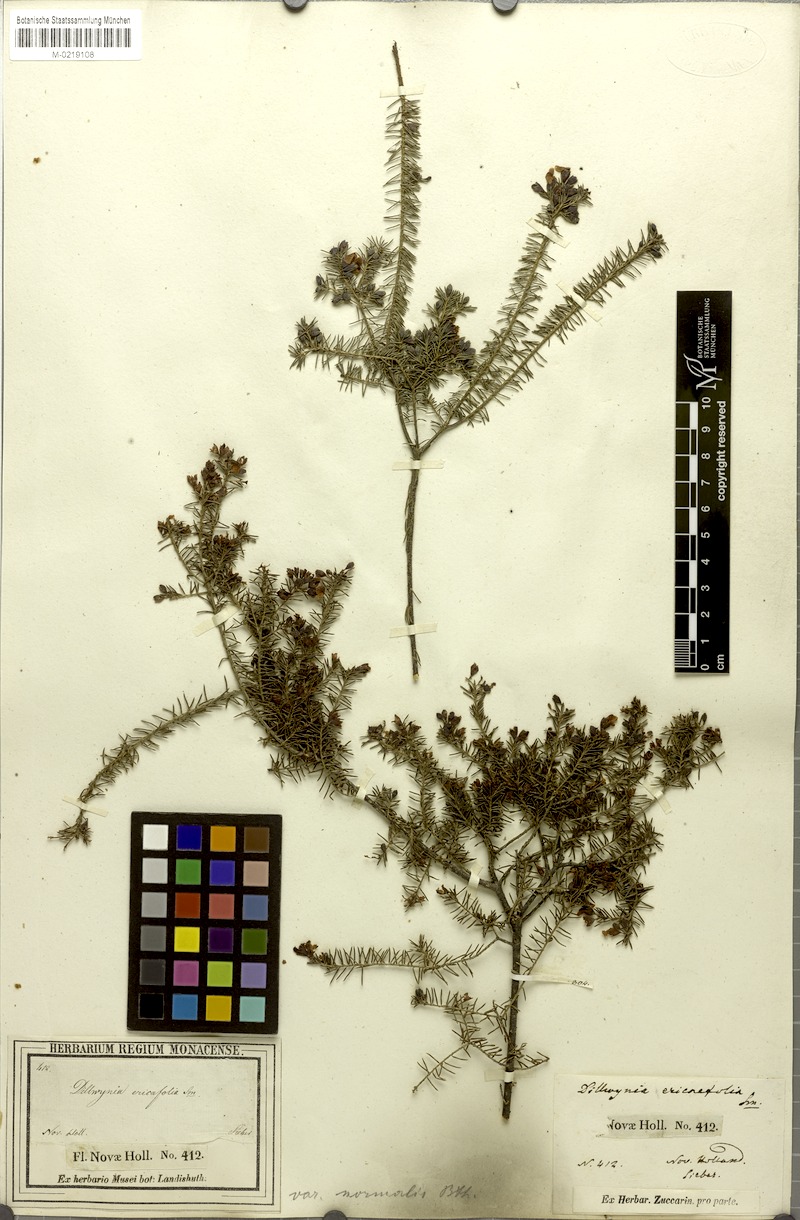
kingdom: Plantae
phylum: Tracheophyta
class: Magnoliopsida
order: Fabales
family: Fabaceae
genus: Dillwynia
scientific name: Dillwynia retorta
